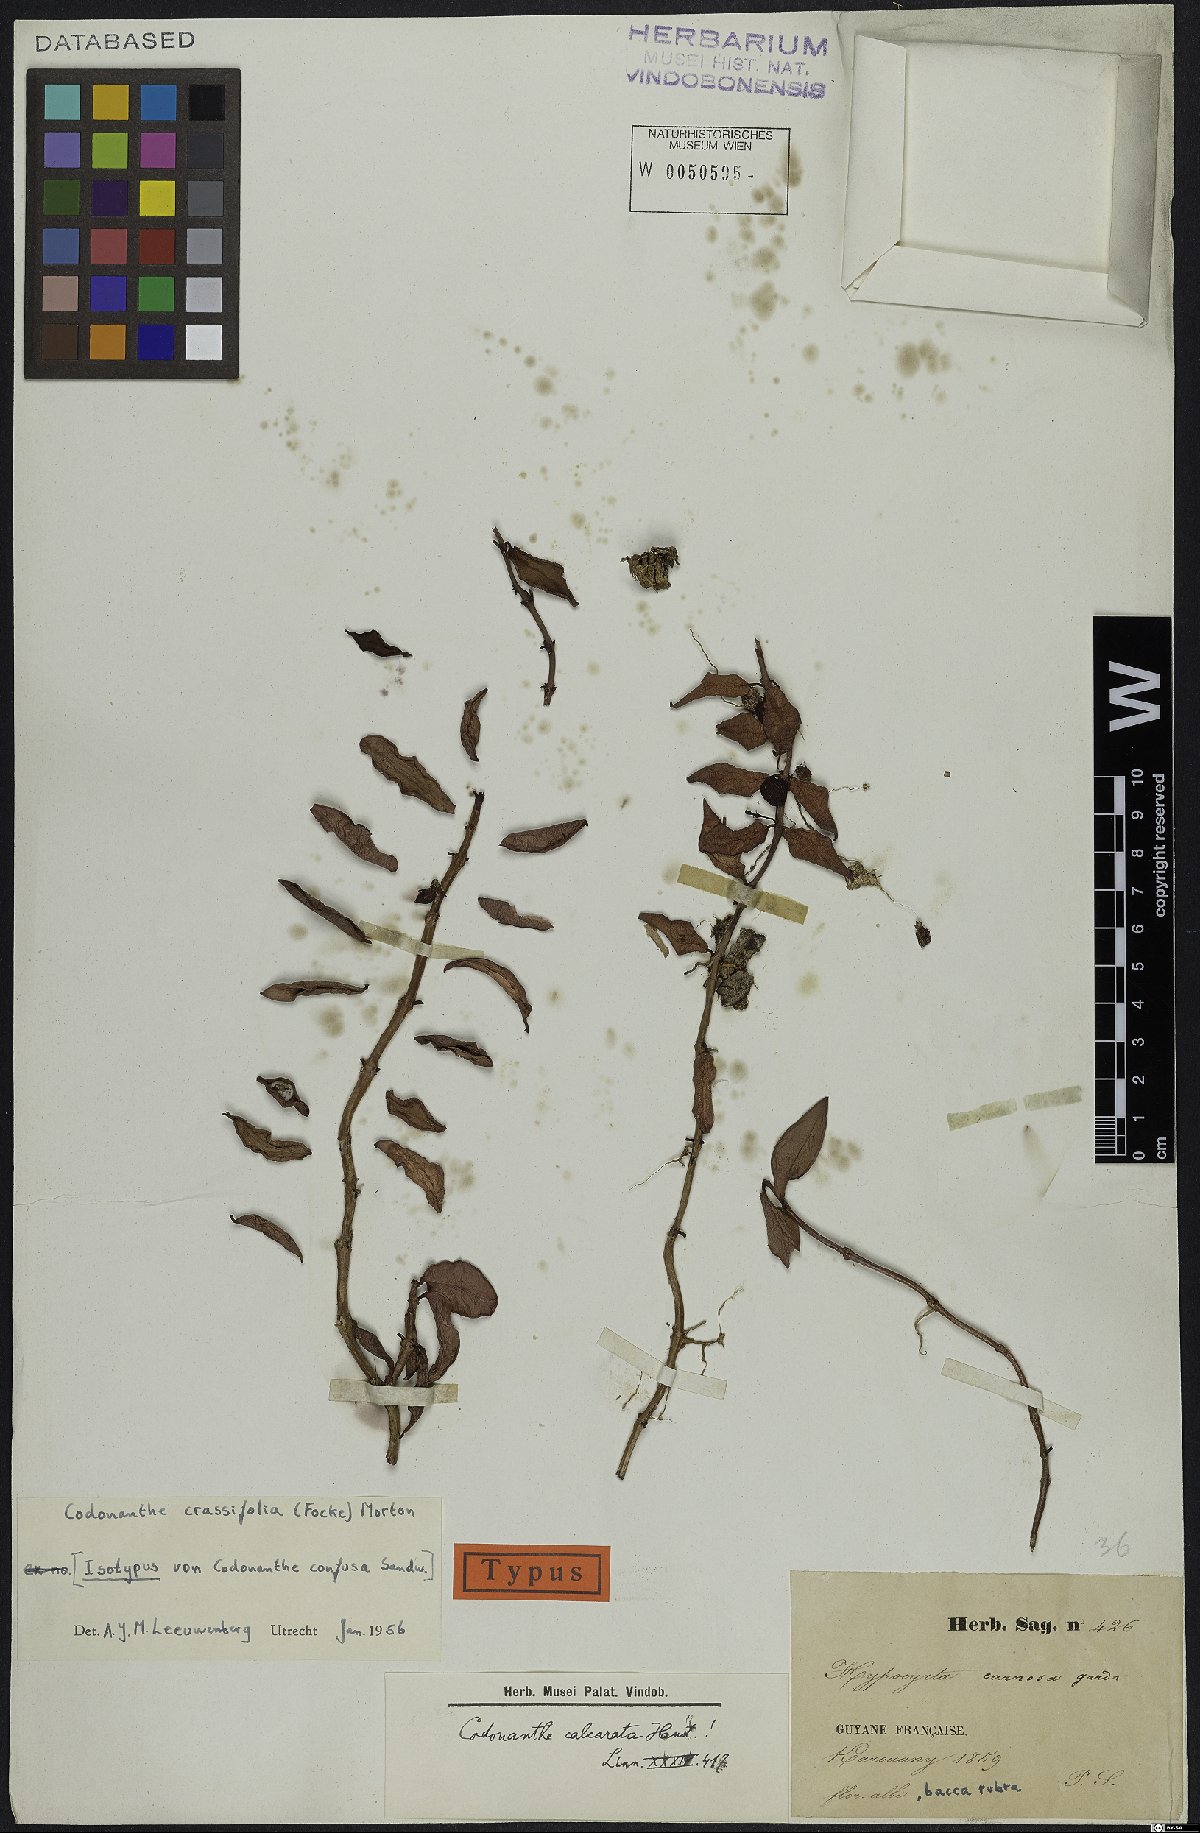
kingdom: Plantae
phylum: Tracheophyta
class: Magnoliopsida
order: Lamiales
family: Gesneriaceae
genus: Codonanthopsis
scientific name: Codonanthopsis crassifolia
